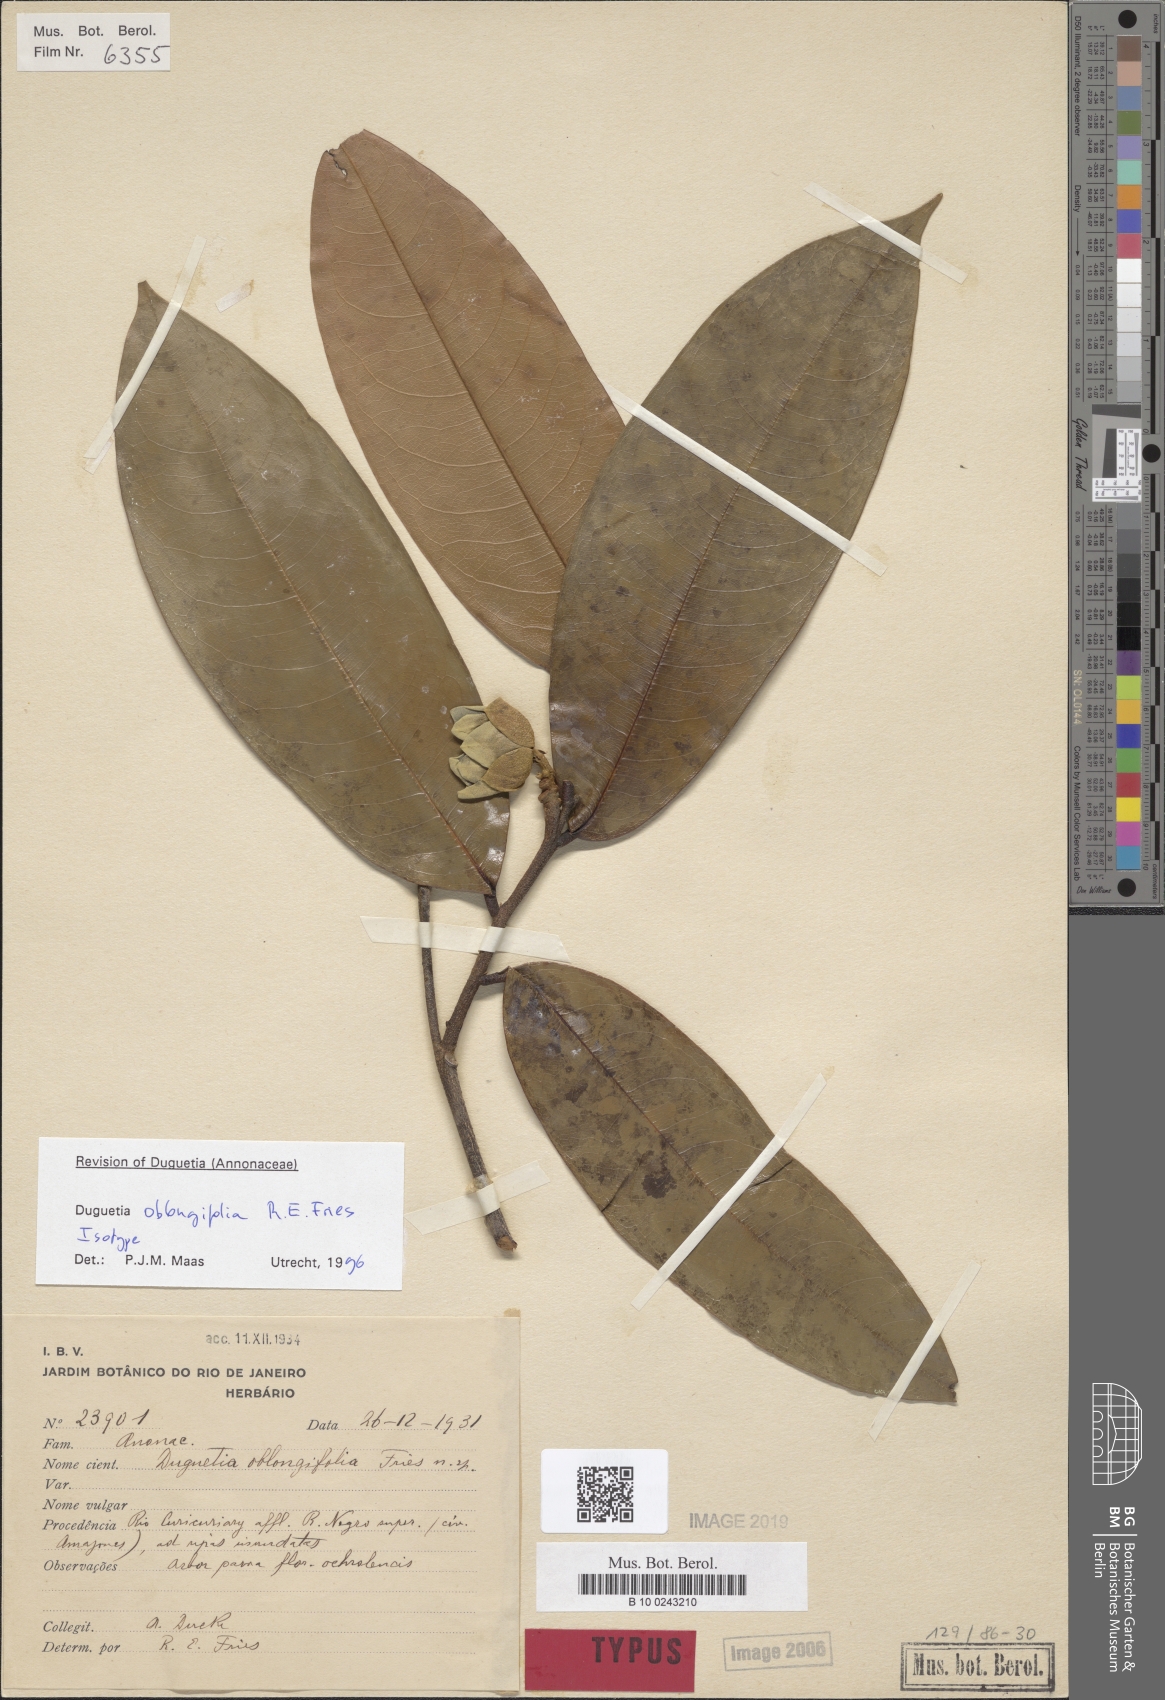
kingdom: Plantae
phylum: Tracheophyta
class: Magnoliopsida
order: Magnoliales
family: Annonaceae
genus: Duguetia
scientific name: Duguetia oblongifolia
